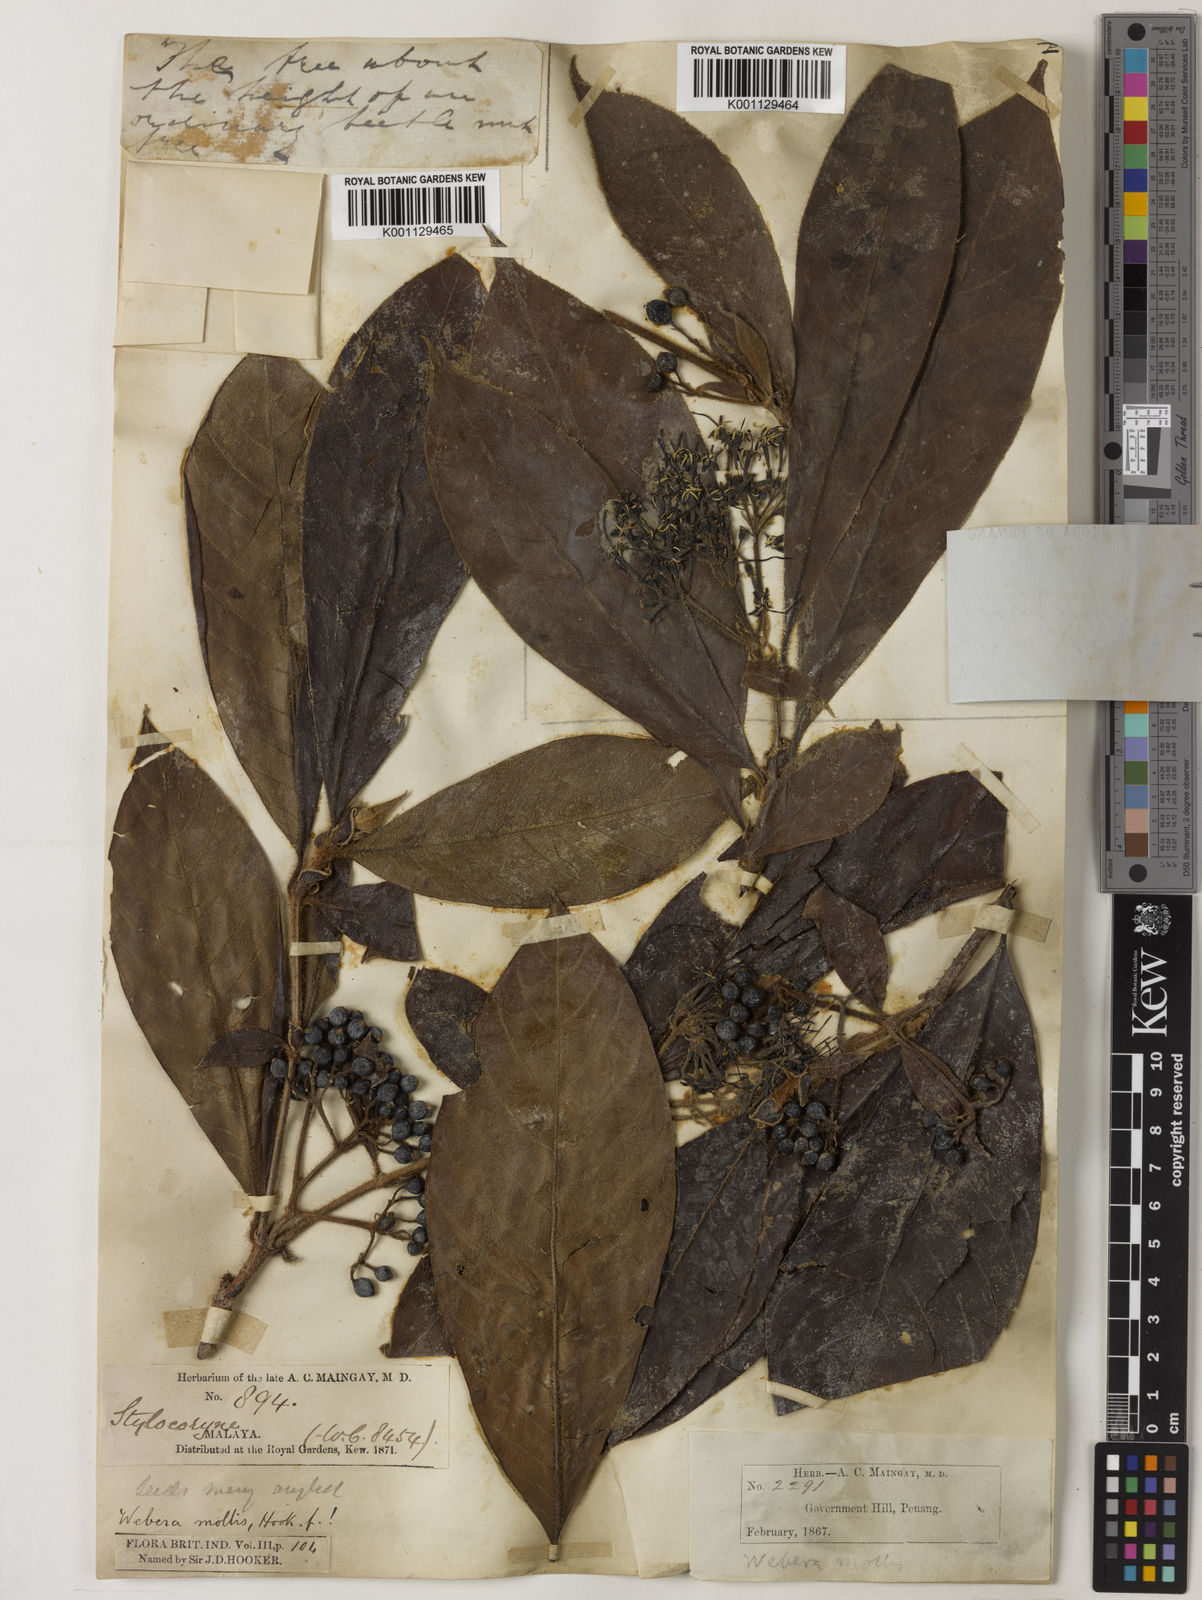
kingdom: Plantae
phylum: Tracheophyta
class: Magnoliopsida
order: Gentianales
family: Rubiaceae
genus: Tarenna
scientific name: Tarenna mollis
